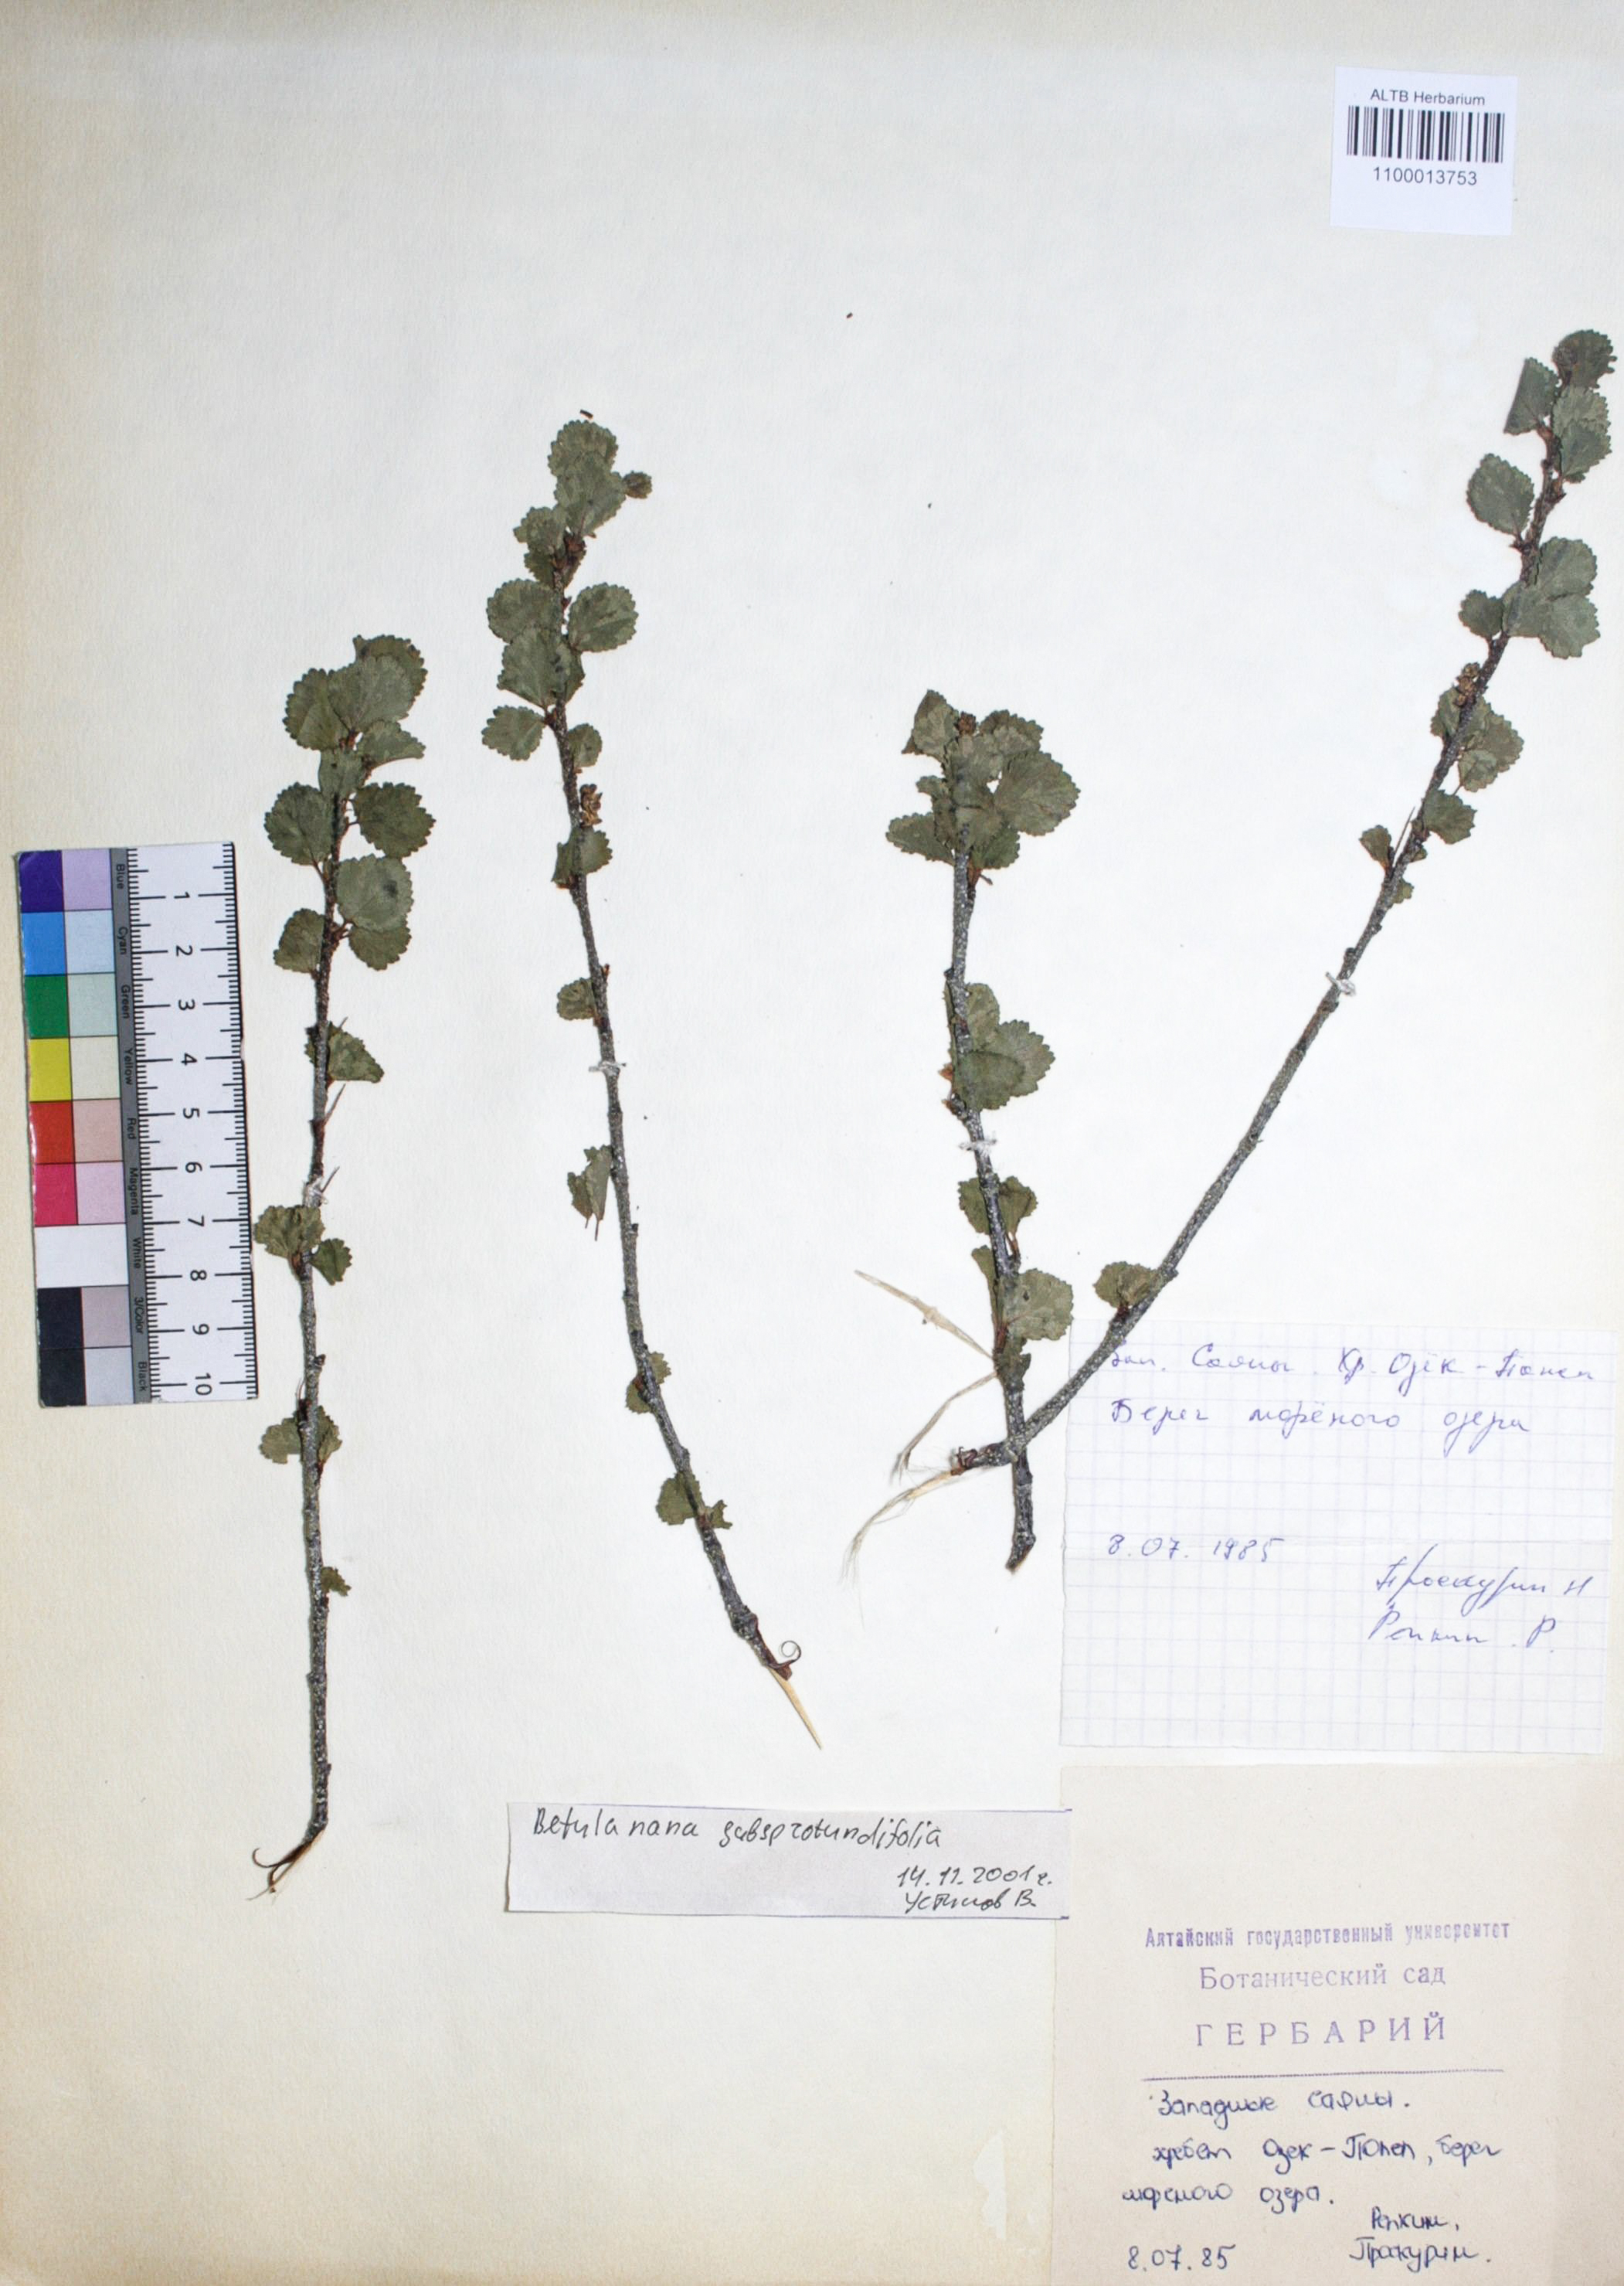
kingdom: Plantae
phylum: Tracheophyta
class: Magnoliopsida
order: Fagales
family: Betulaceae
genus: Betula
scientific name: Betula glandulosa
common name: Dwarf birch
